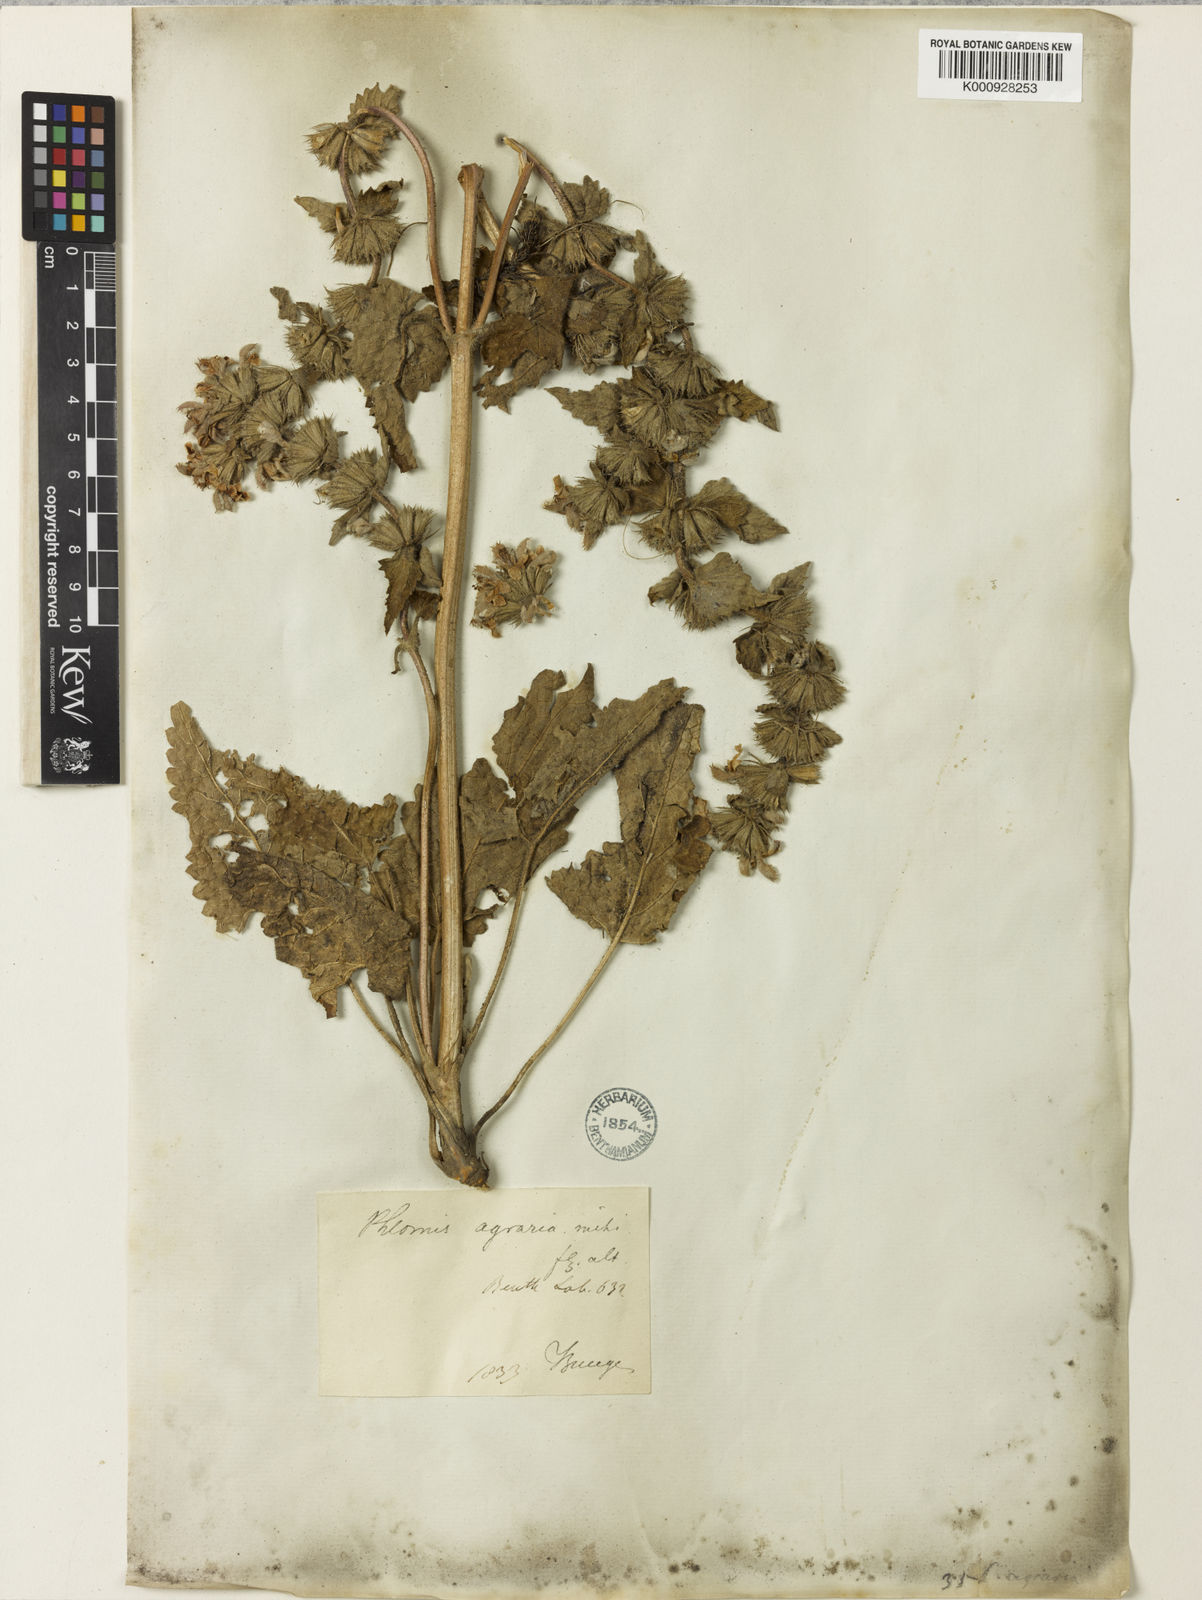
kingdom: Plantae
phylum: Tracheophyta
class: Magnoliopsida
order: Lamiales
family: Lamiaceae
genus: Phlomoides
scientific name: Phlomoides agraria
